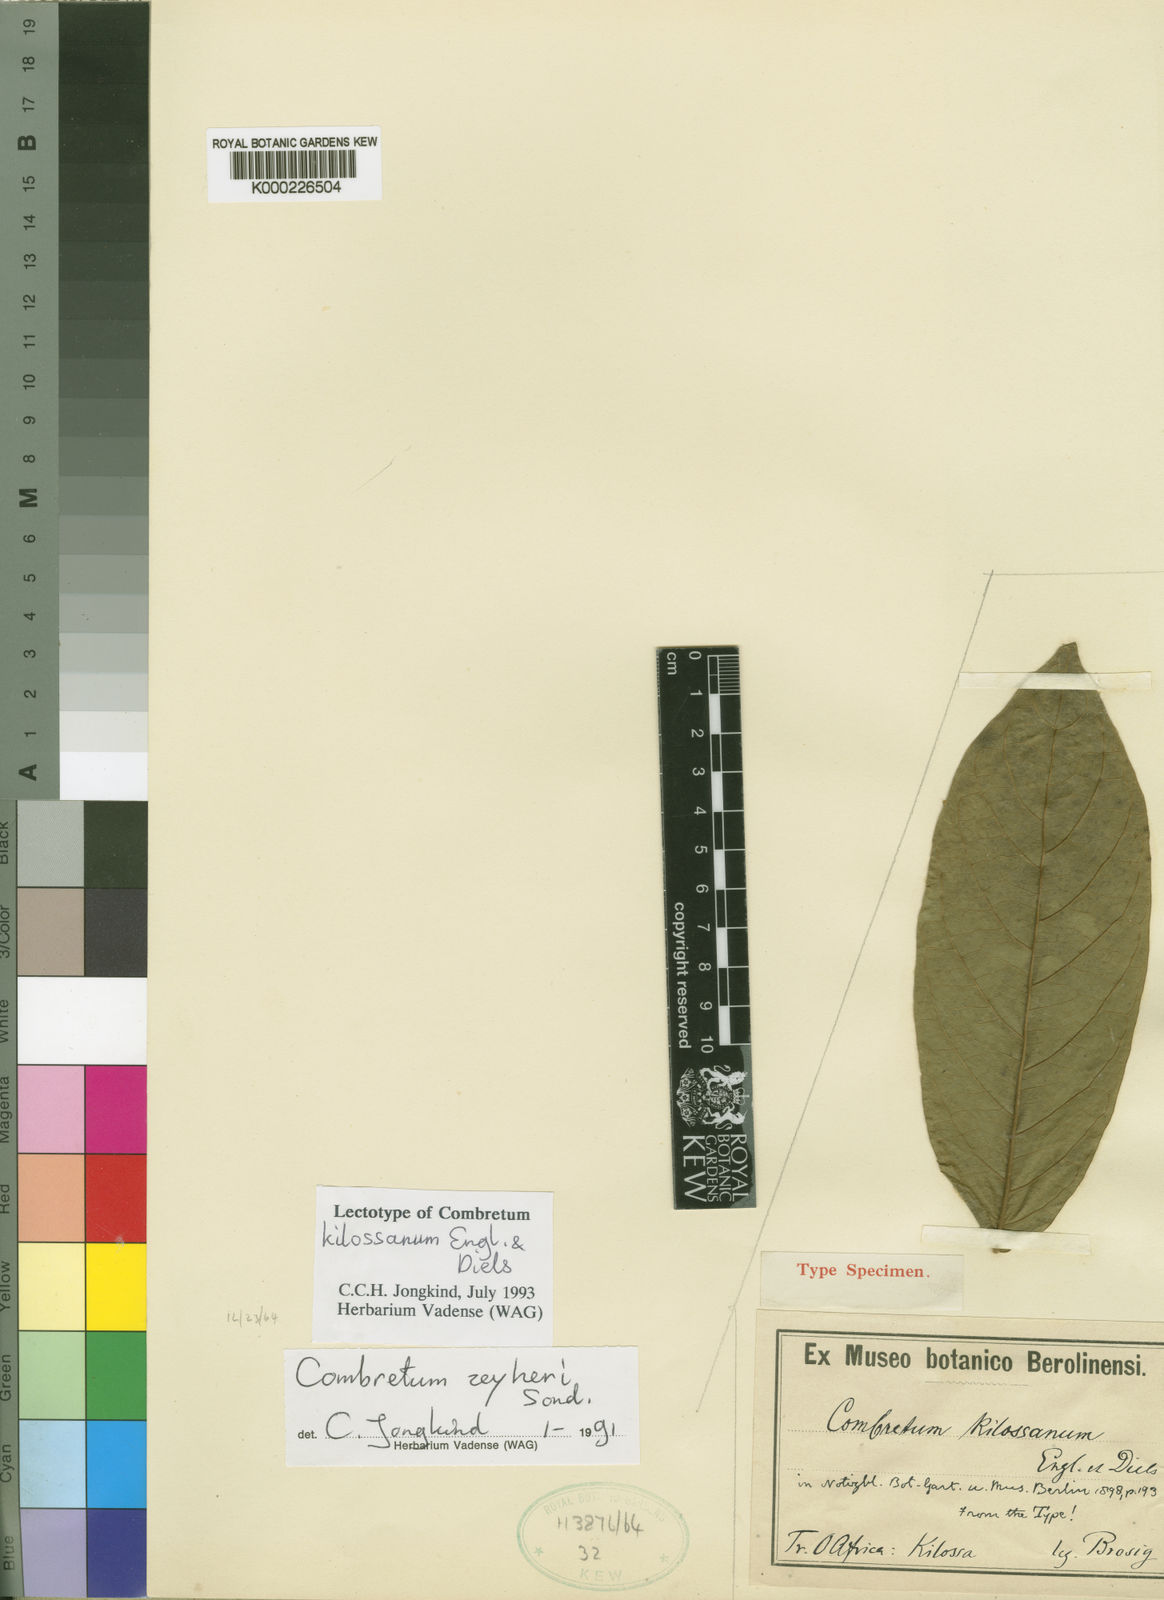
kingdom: Plantae
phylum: Tracheophyta
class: Magnoliopsida
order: Myrtales
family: Combretaceae
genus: Combretum
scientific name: Combretum zeyheri
